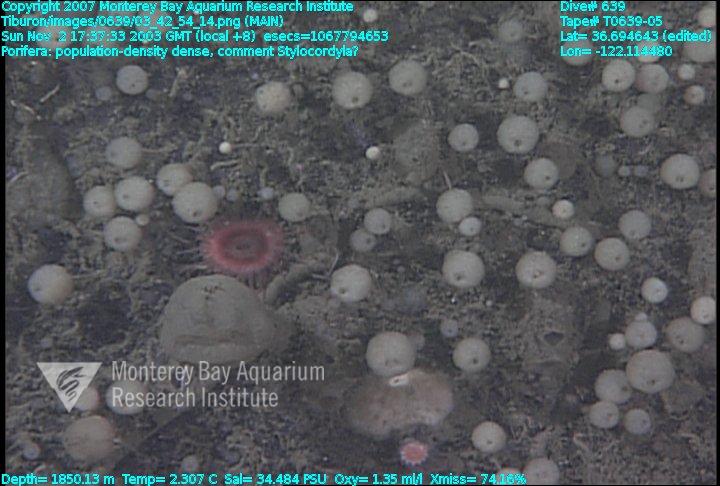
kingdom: Animalia
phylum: Porifera
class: Demospongiae
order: Suberitida
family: Stylocordylidae
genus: Stylocordyla
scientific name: Stylocordyla
